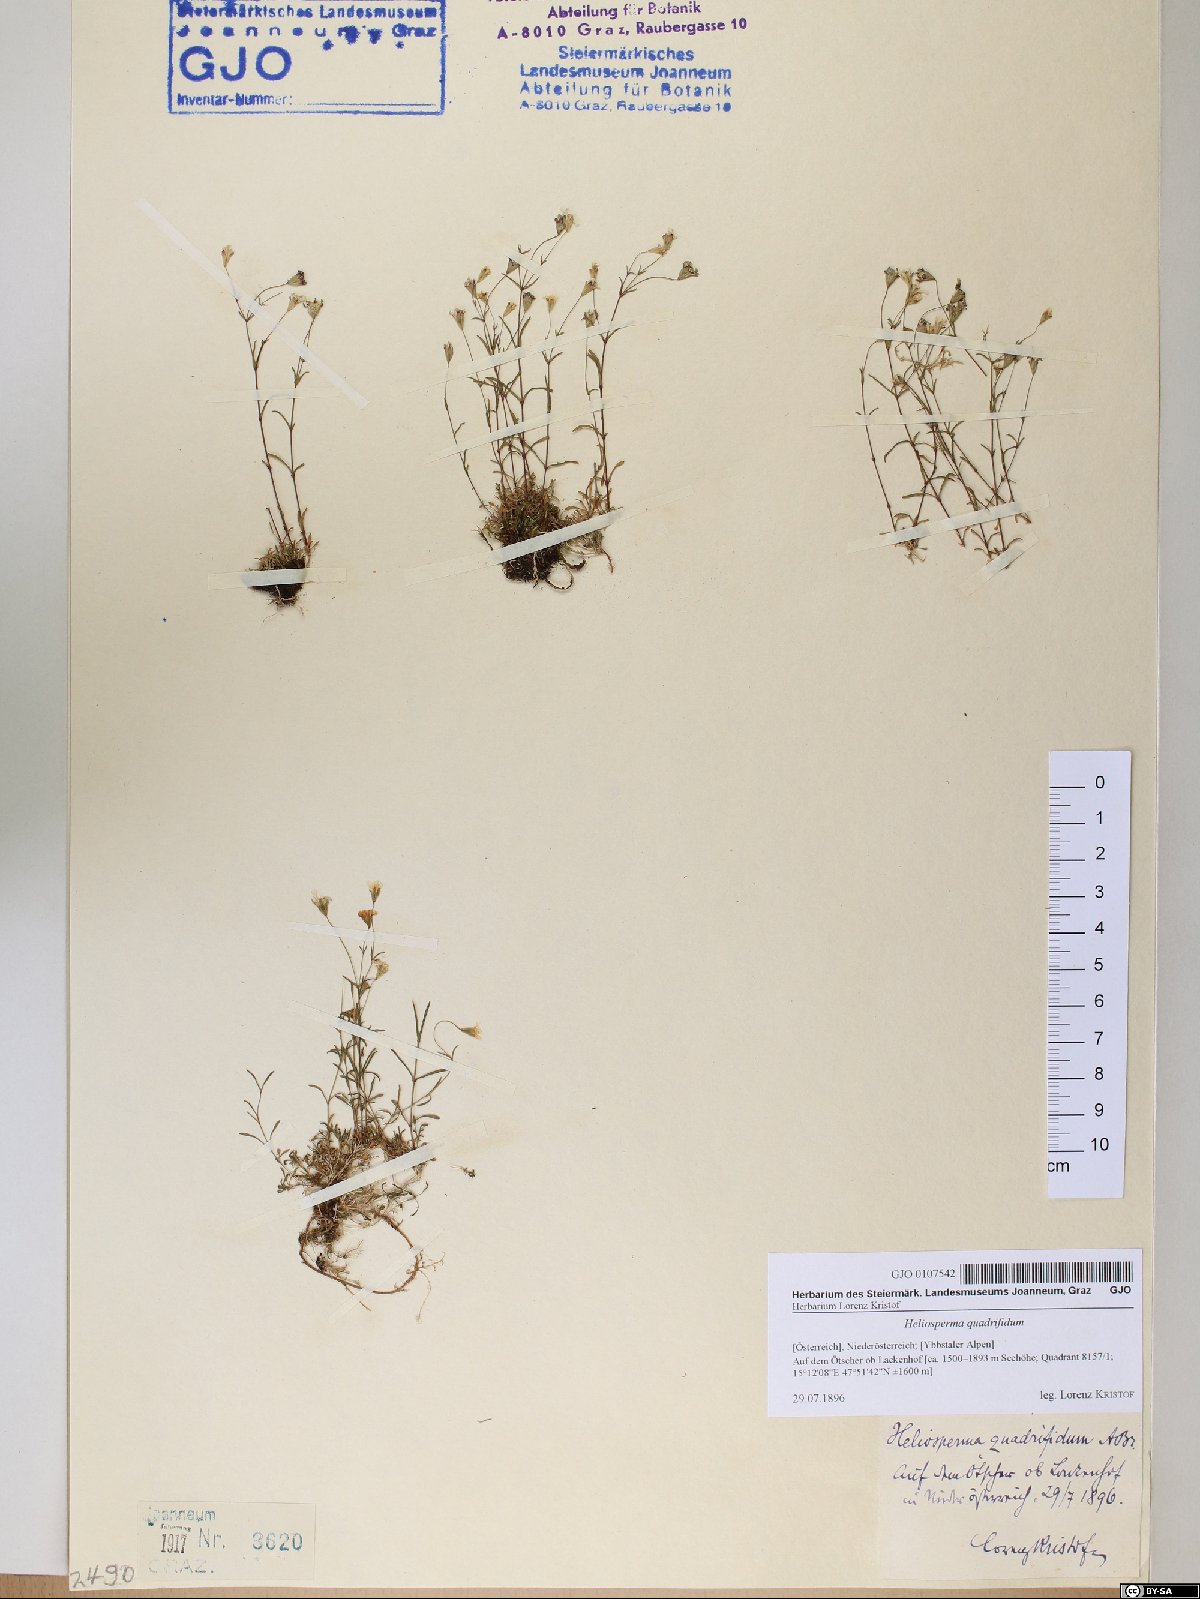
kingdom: Plantae
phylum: Tracheophyta
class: Magnoliopsida
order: Caryophyllales
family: Caryophyllaceae
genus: Heliosperma
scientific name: Heliosperma alpestre
